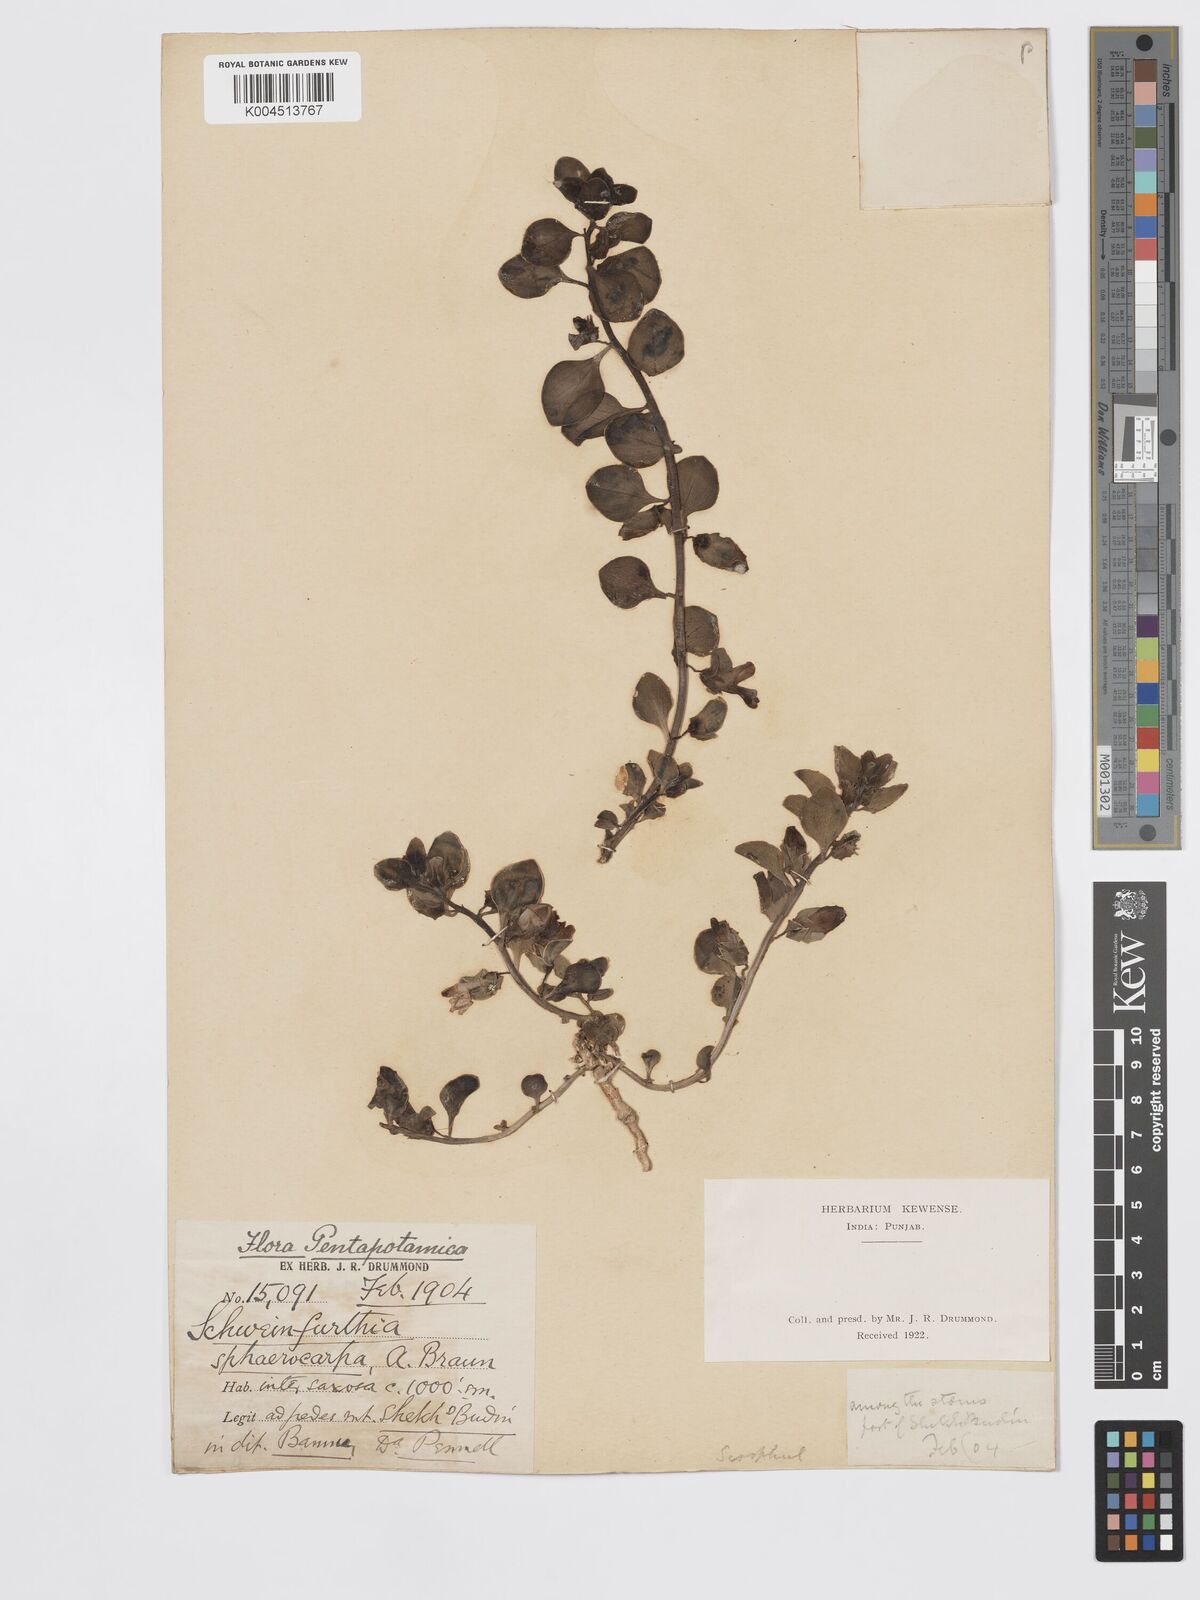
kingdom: Plantae
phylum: Tracheophyta
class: Magnoliopsida
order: Lamiales
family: Plantaginaceae
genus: Schweinfurthia
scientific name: Schweinfurthia papilionacea
